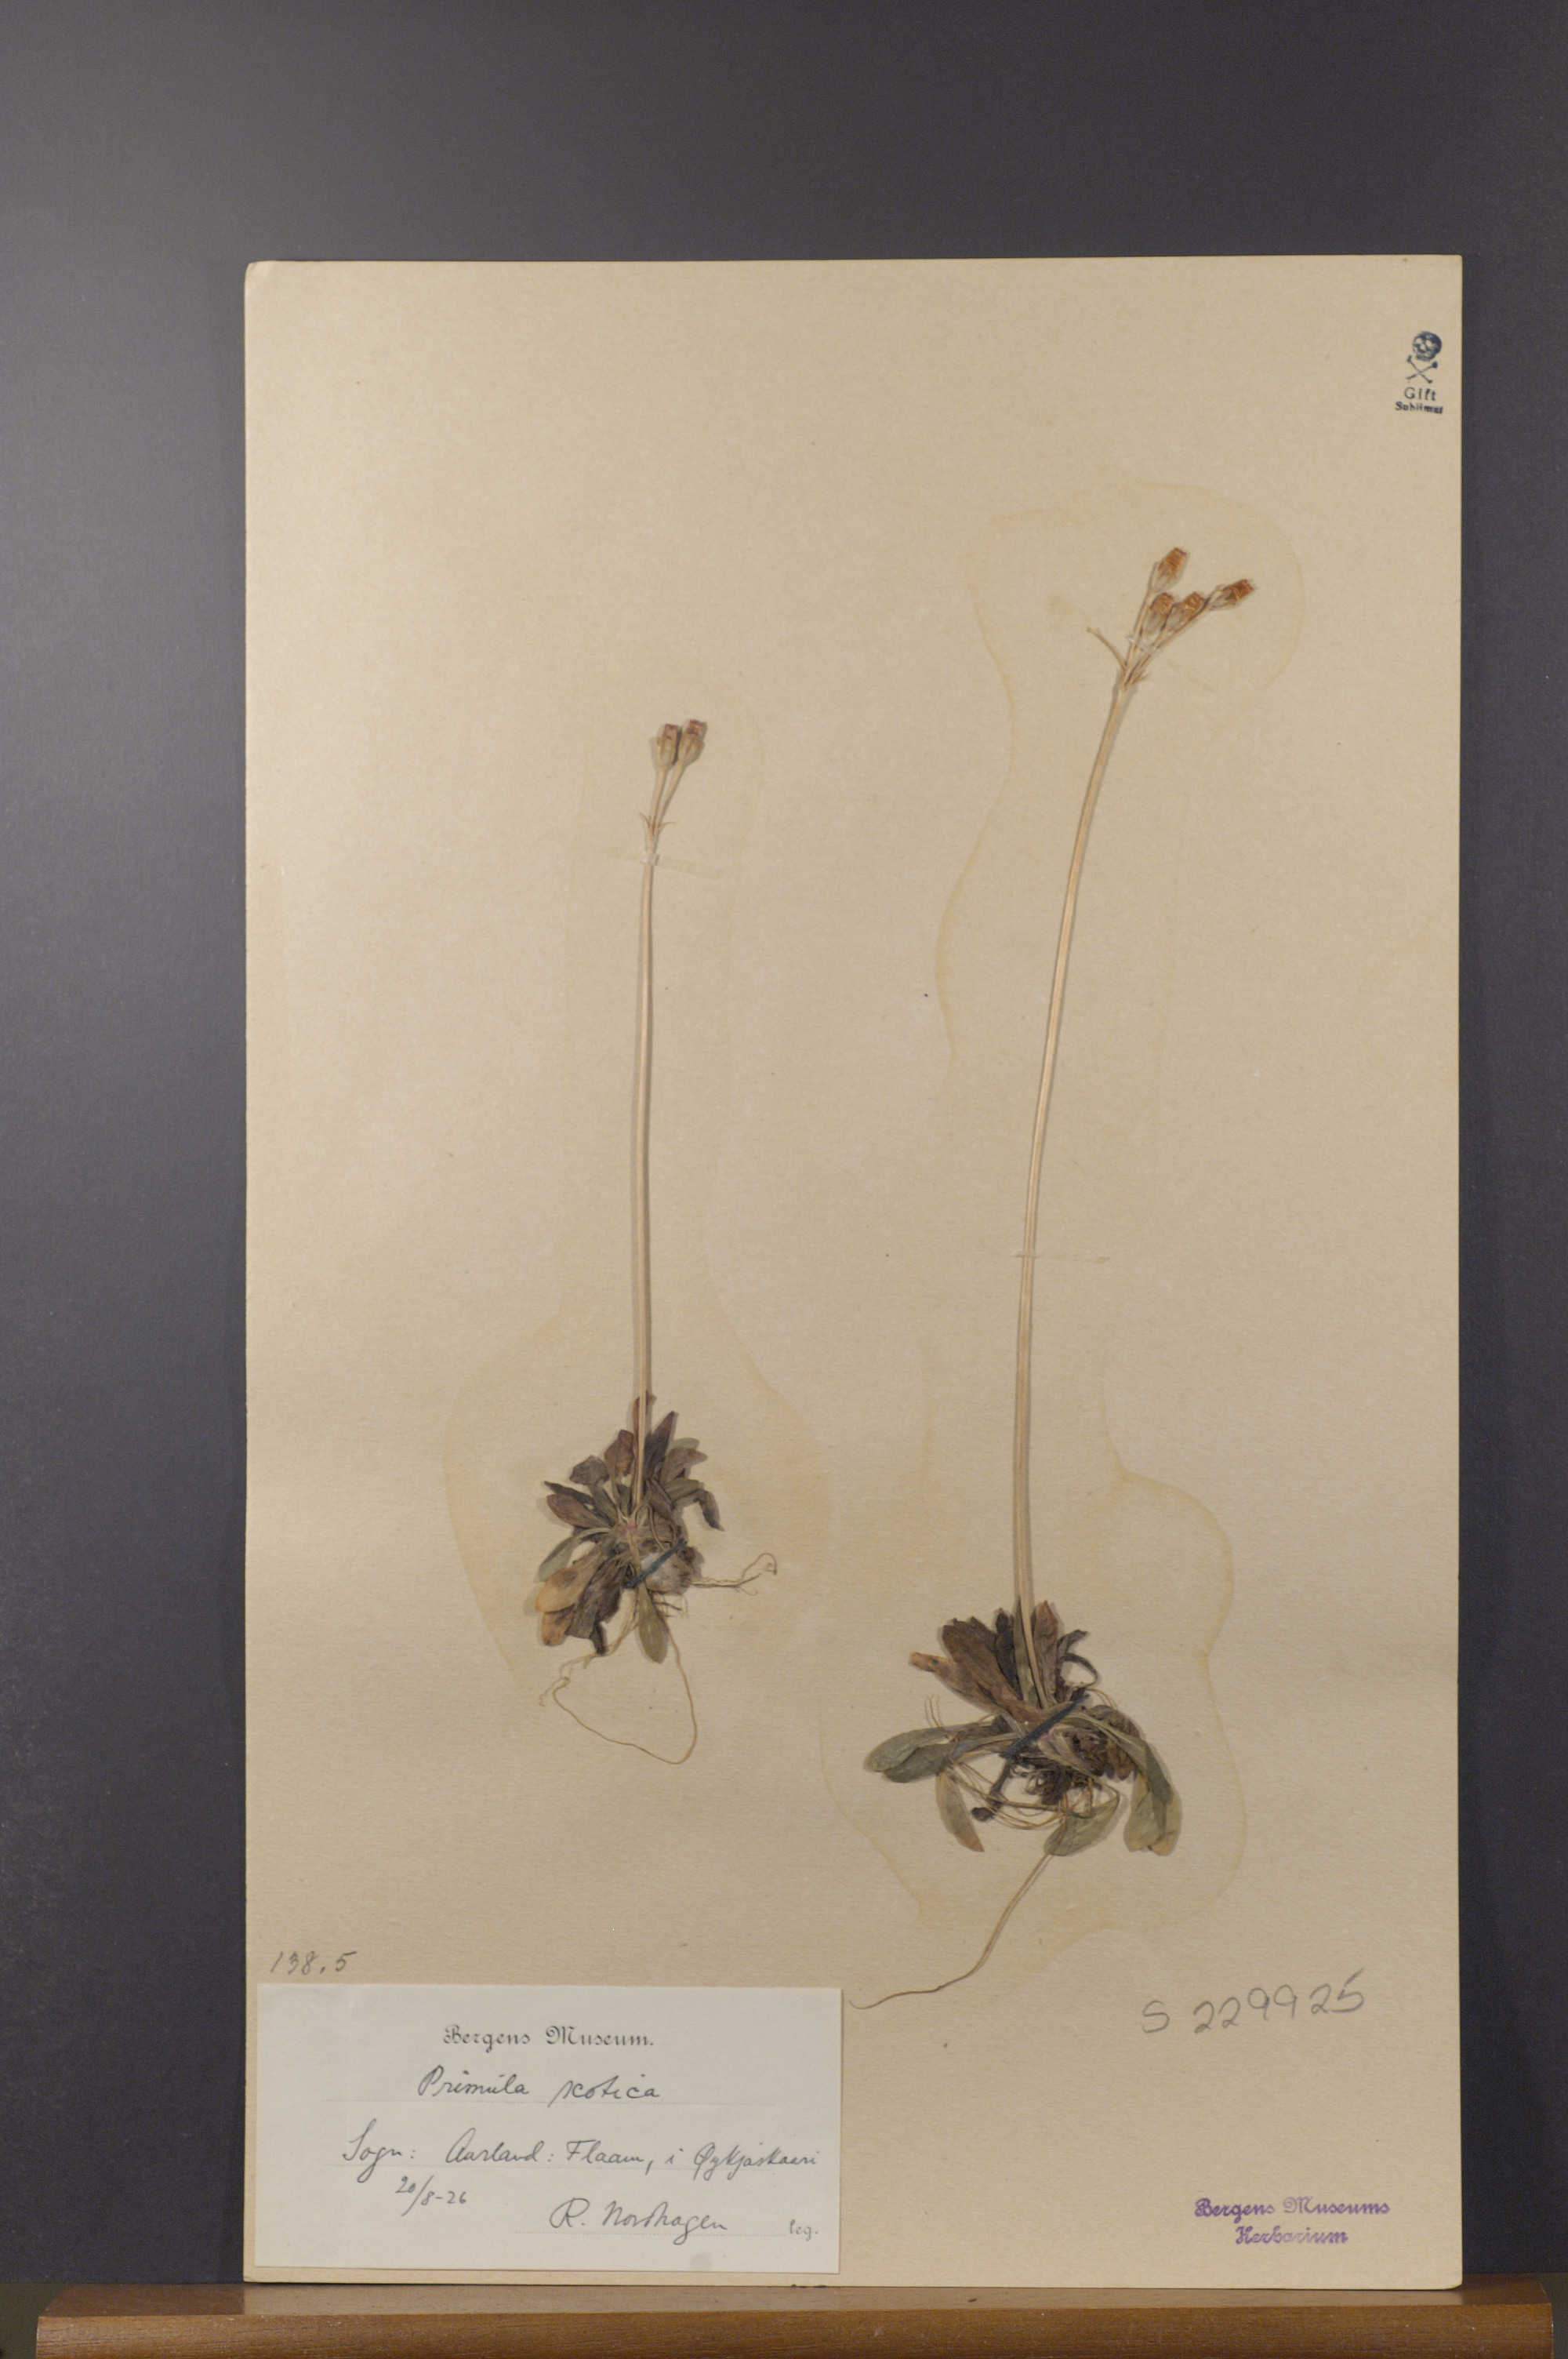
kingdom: Plantae
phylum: Tracheophyta
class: Magnoliopsida
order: Ericales
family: Primulaceae
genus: Primula
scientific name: Primula scotica
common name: Scottish primrose
